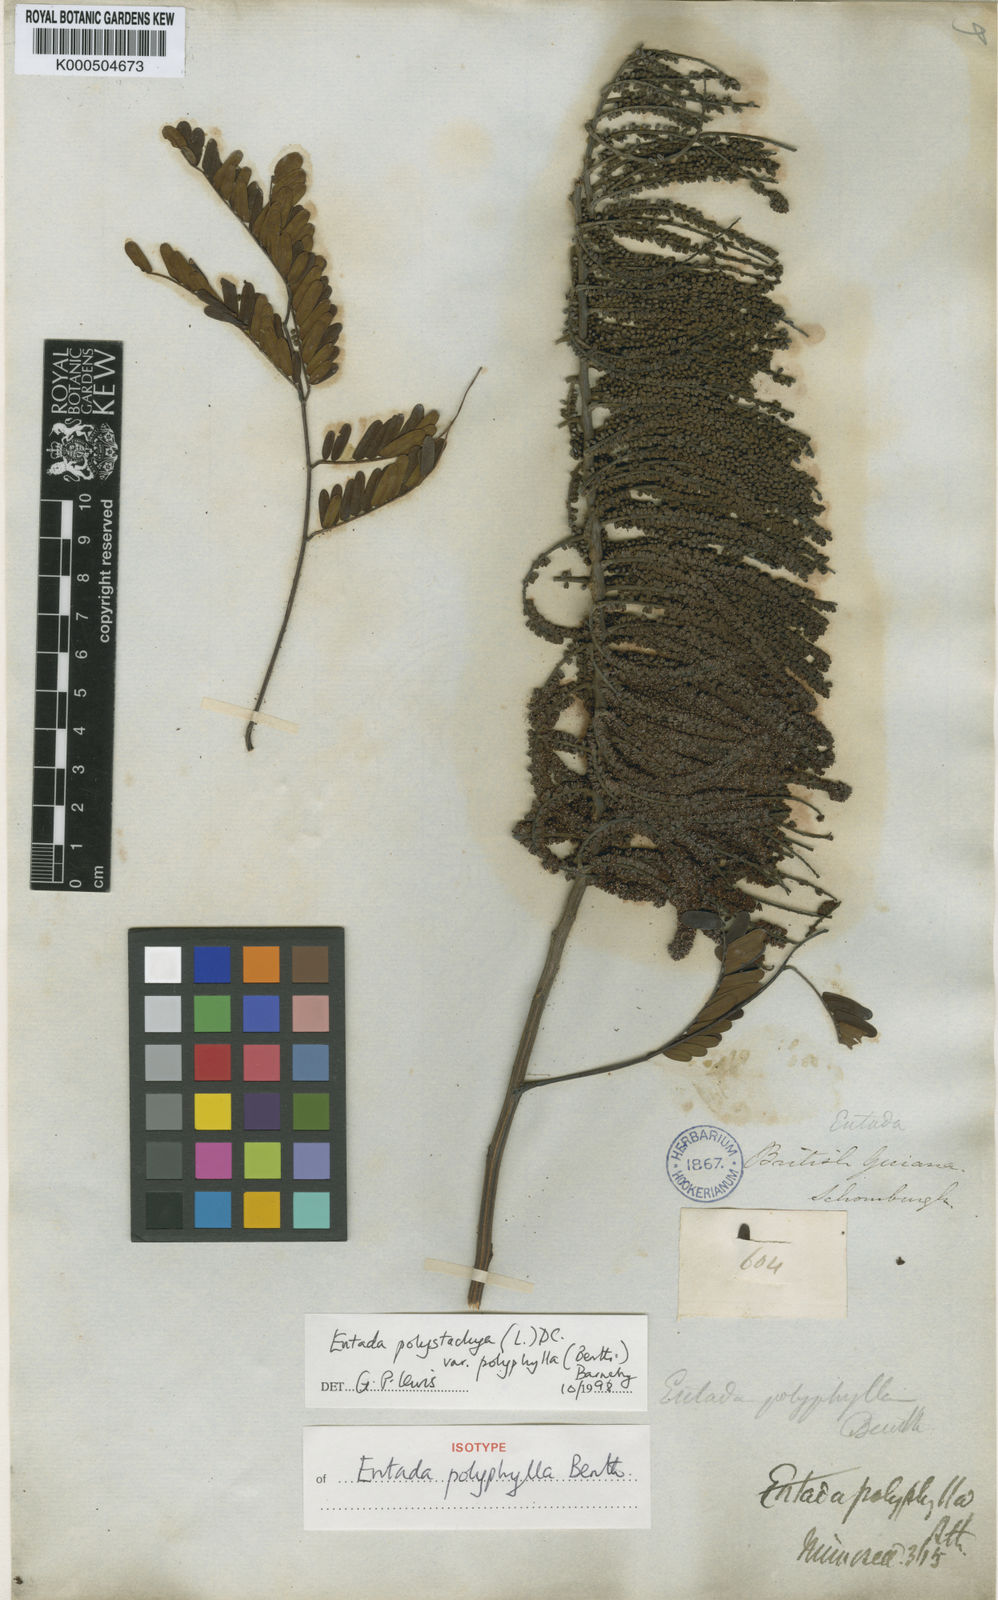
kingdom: Plantae
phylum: Tracheophyta
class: Magnoliopsida
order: Fabales
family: Fabaceae
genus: Entada
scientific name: Entada polyphylla
